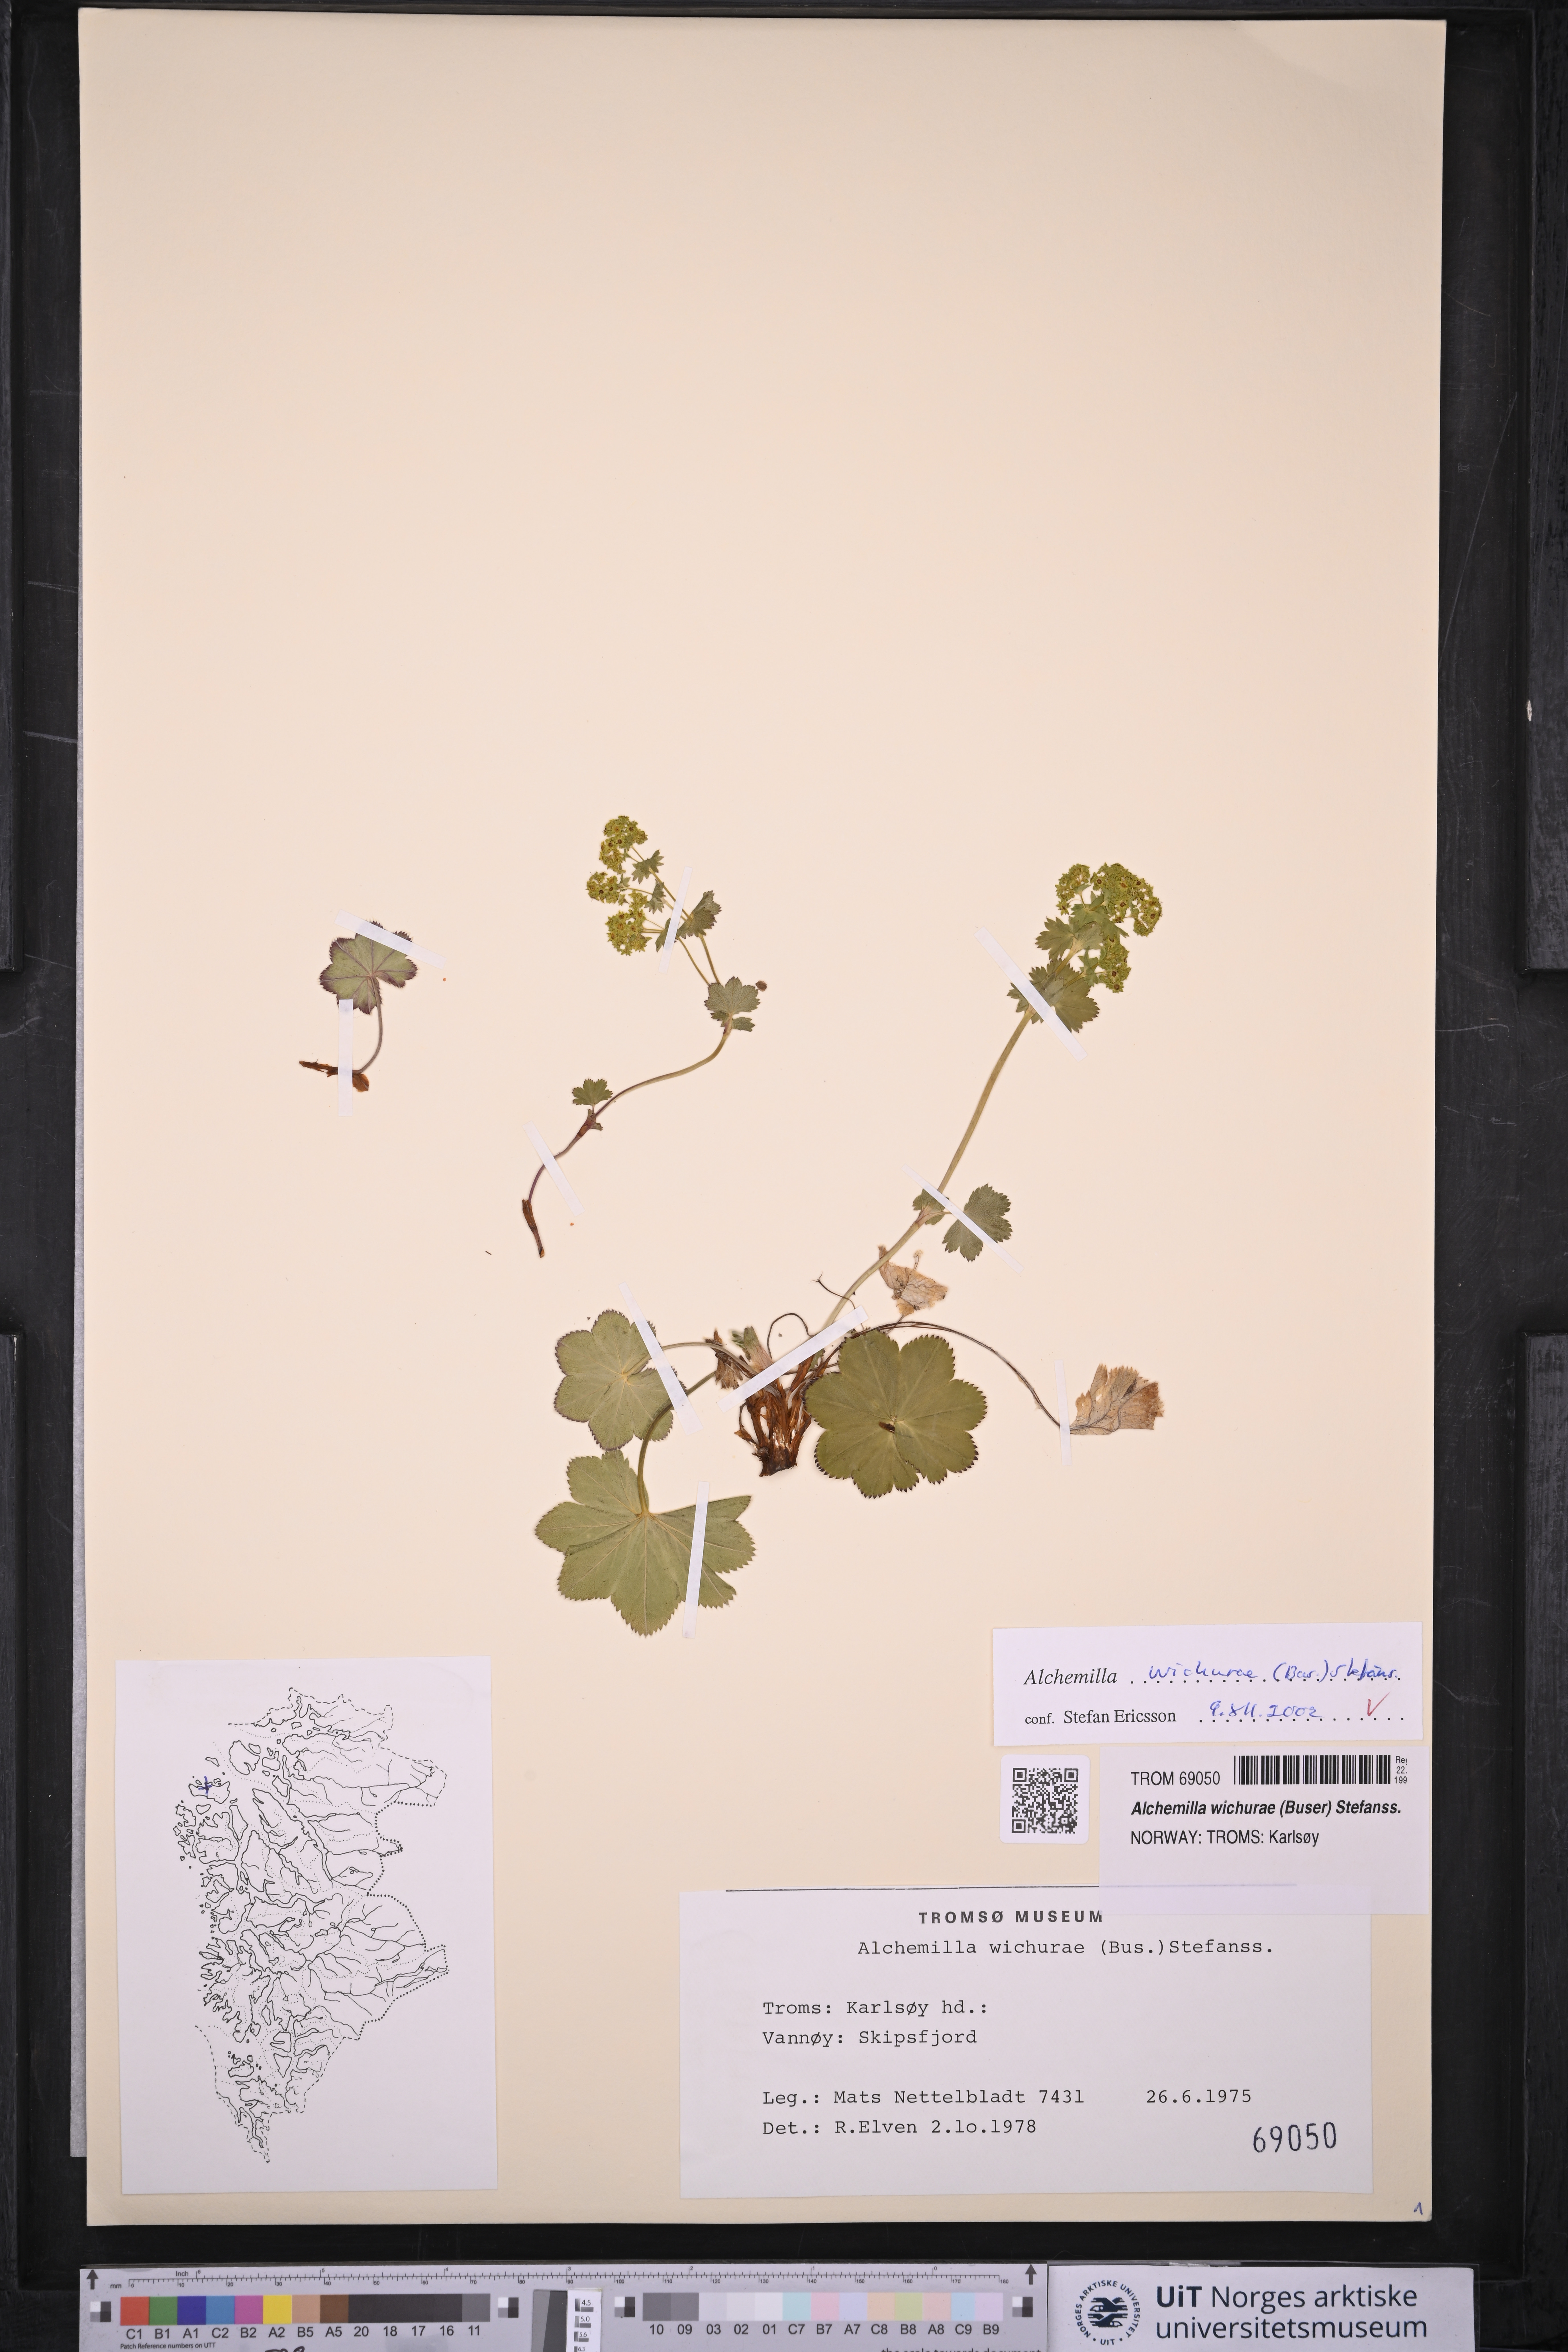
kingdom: Plantae
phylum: Tracheophyta
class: Magnoliopsida
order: Rosales
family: Rosaceae
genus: Alchemilla
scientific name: Alchemilla wichurae
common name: Rock lady's mantle
